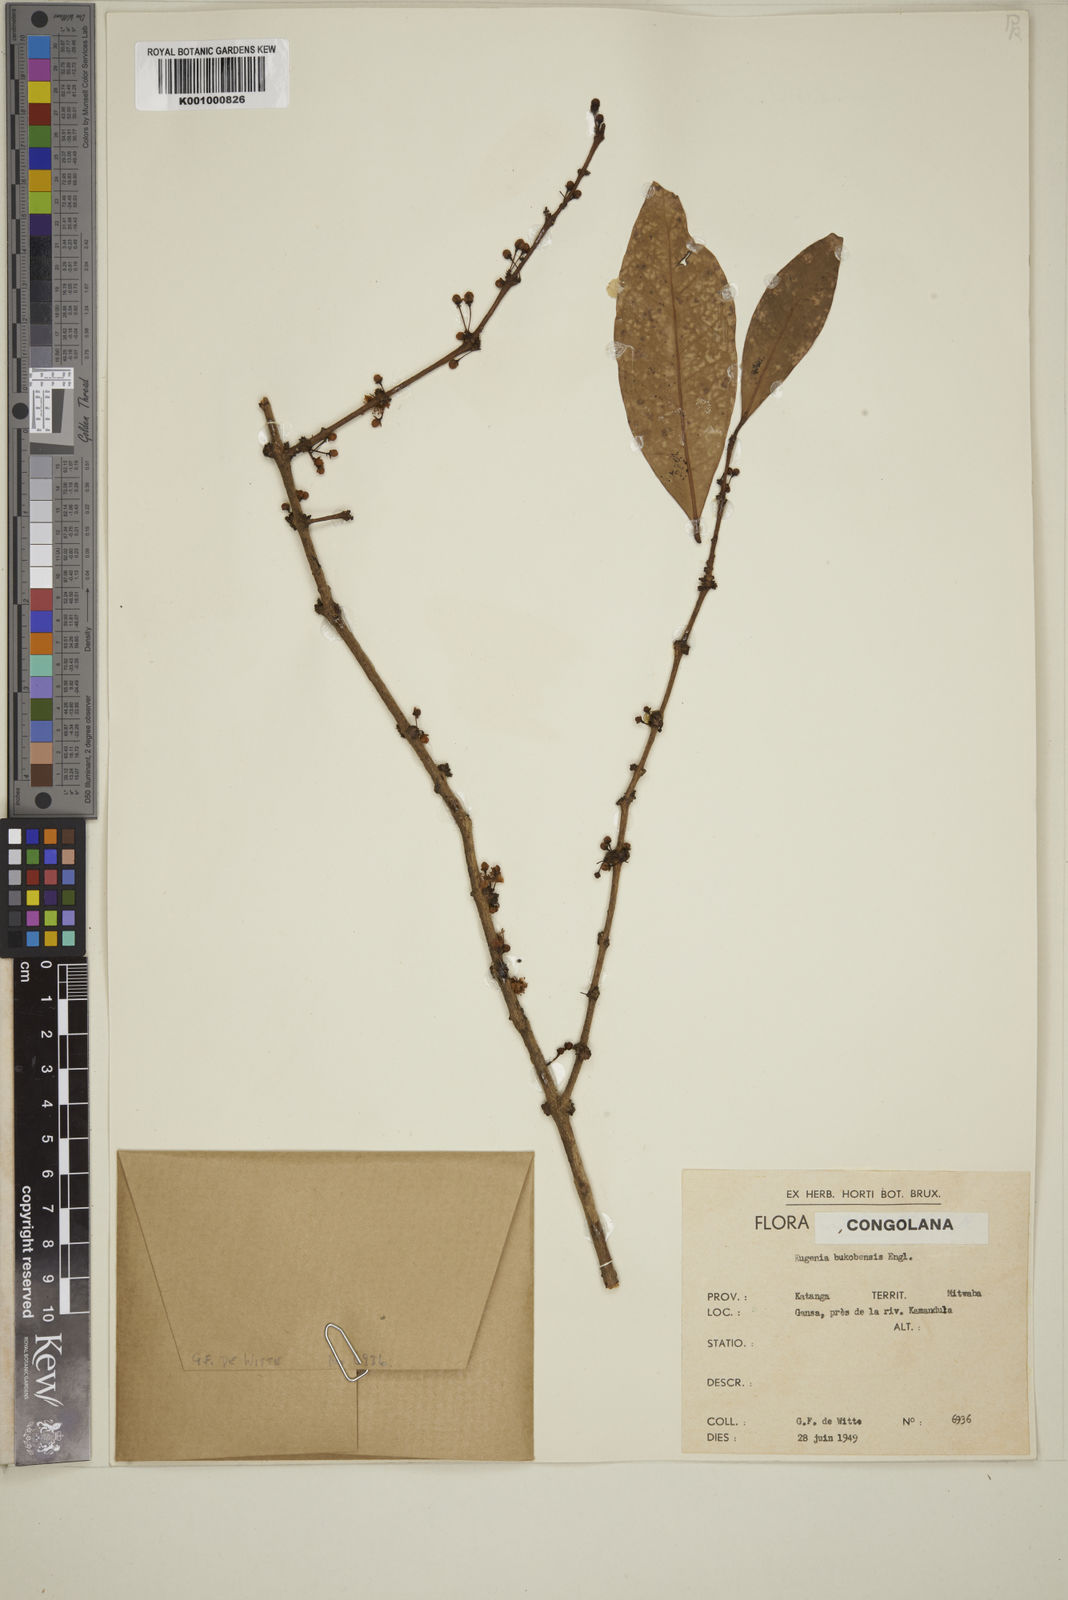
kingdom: Plantae
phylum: Tracheophyta
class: Magnoliopsida
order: Myrtales
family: Myrtaceae
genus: Eugenia
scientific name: Eugenia bukobensis
